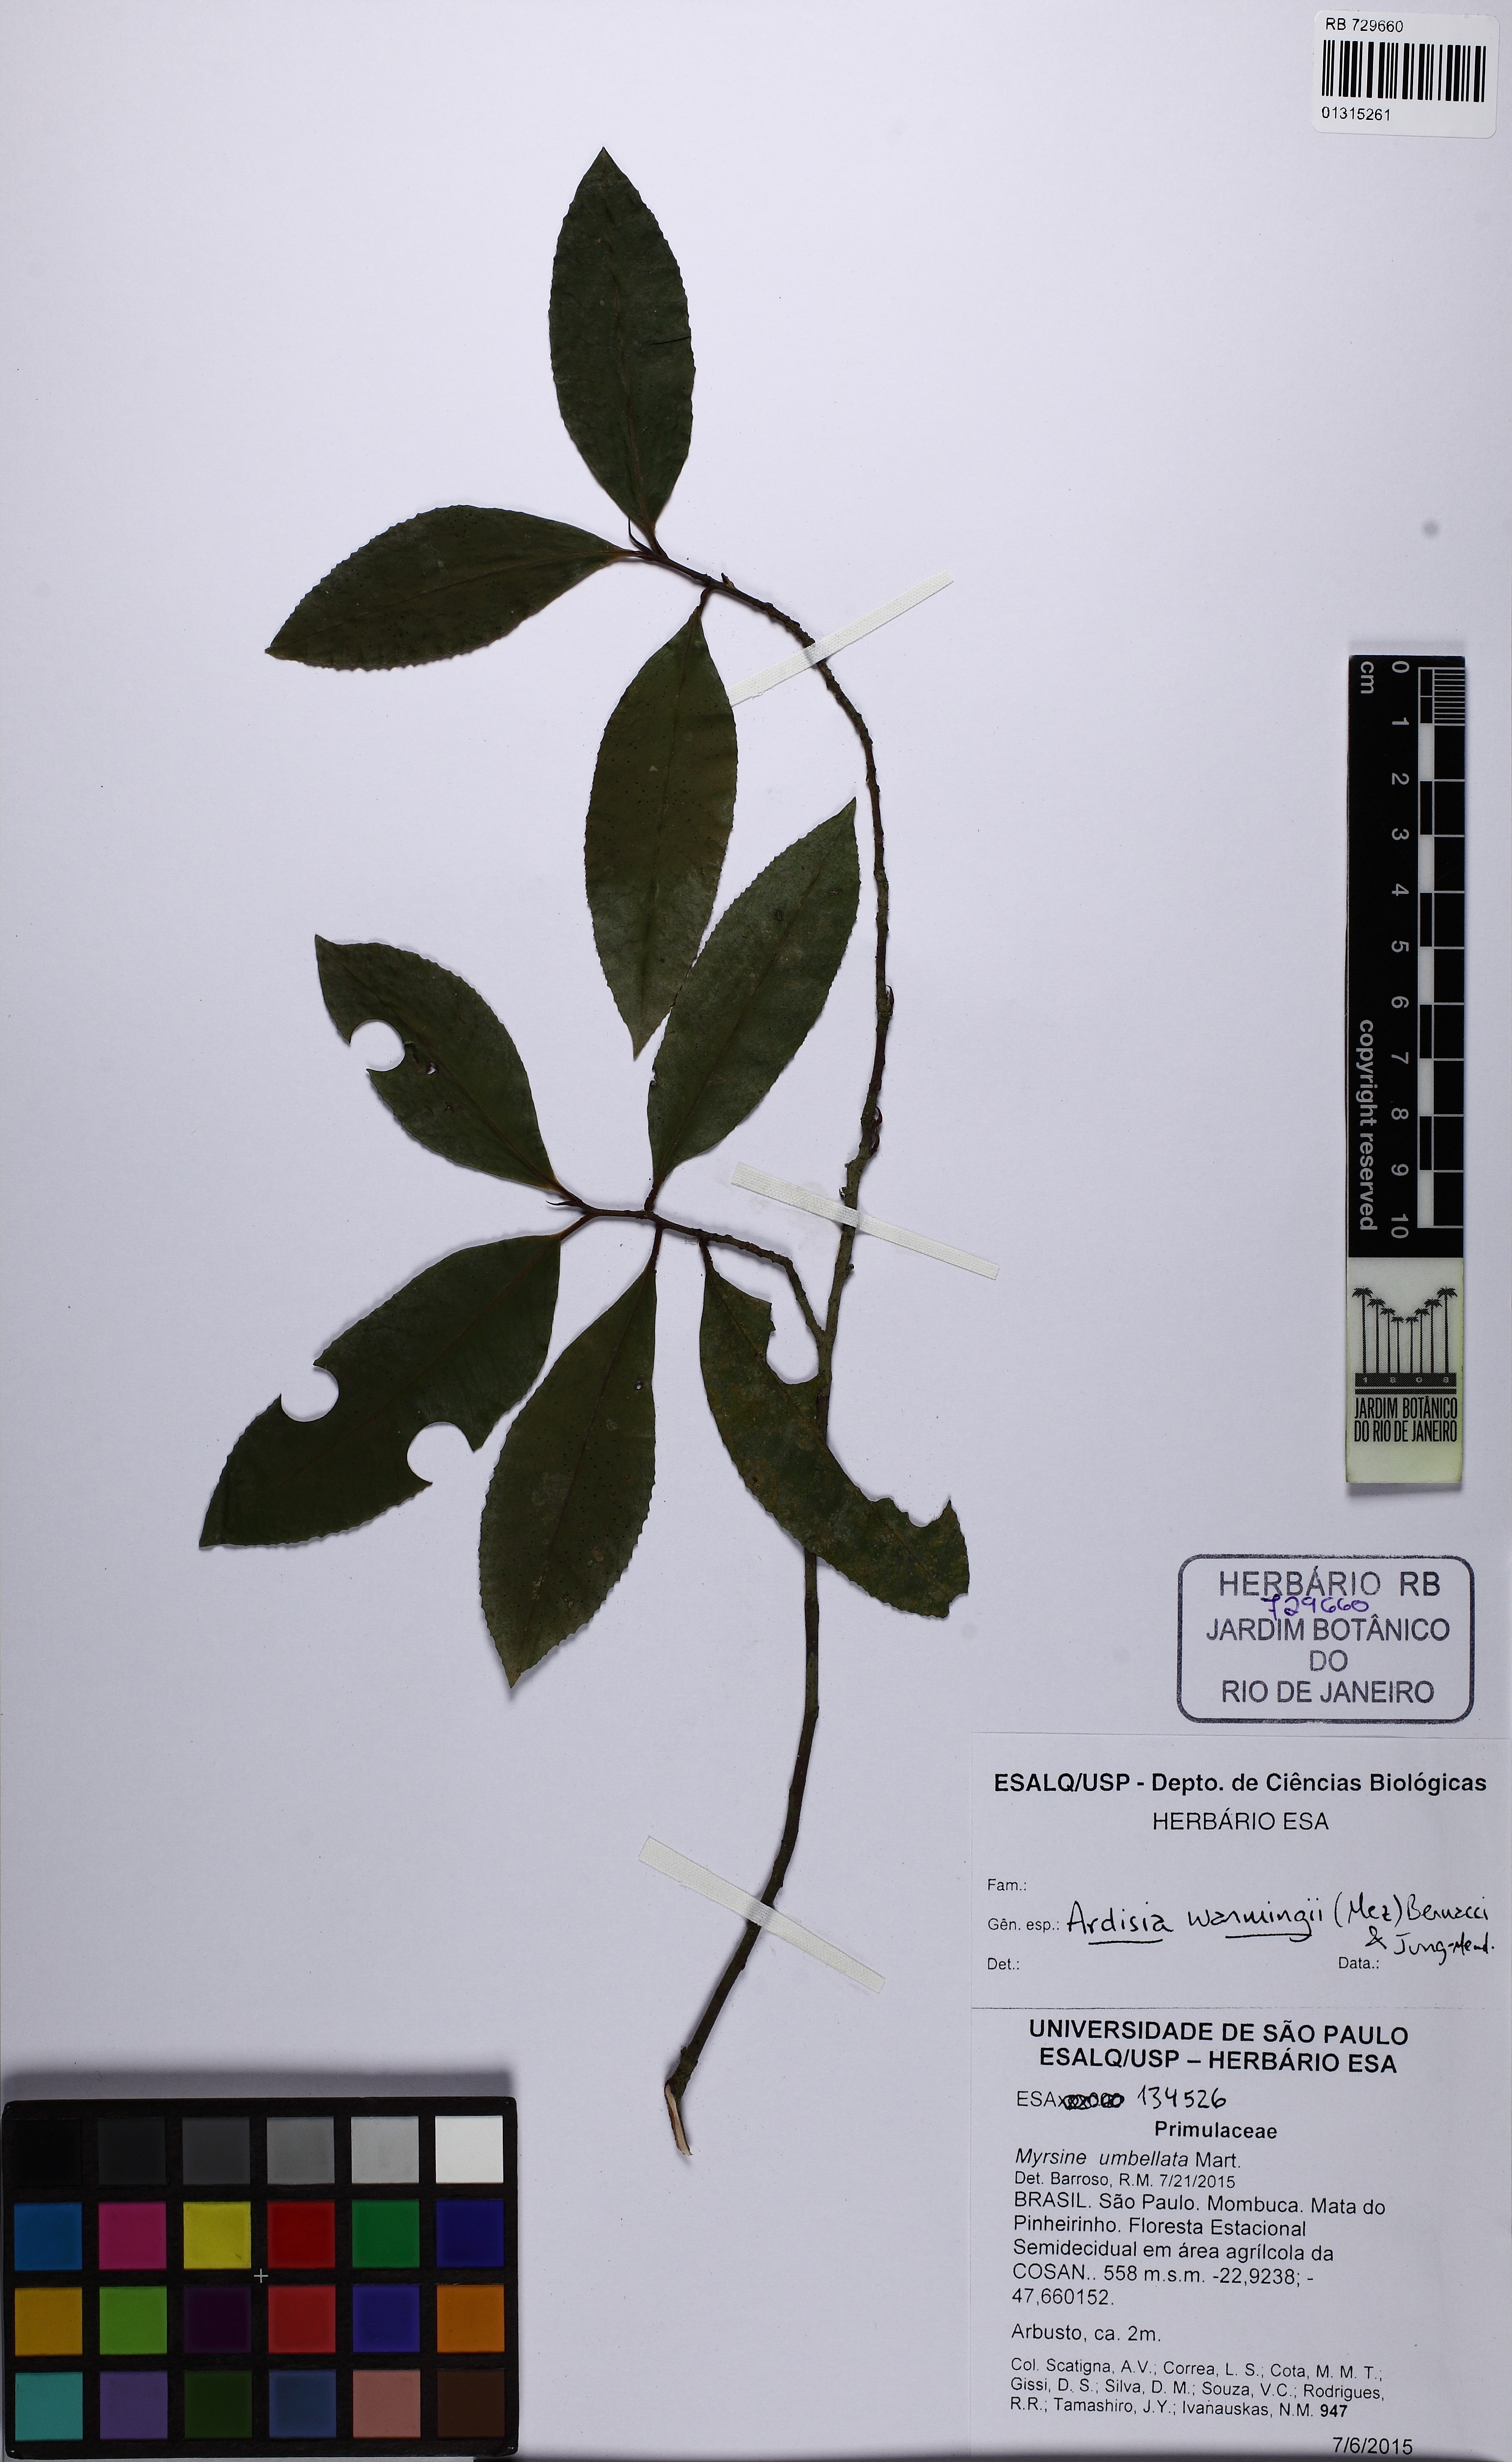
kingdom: Plantae
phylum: Tracheophyta
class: Magnoliopsida
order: Ericales
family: Primulaceae
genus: Stylogyne
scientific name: Stylogyne warmingii
